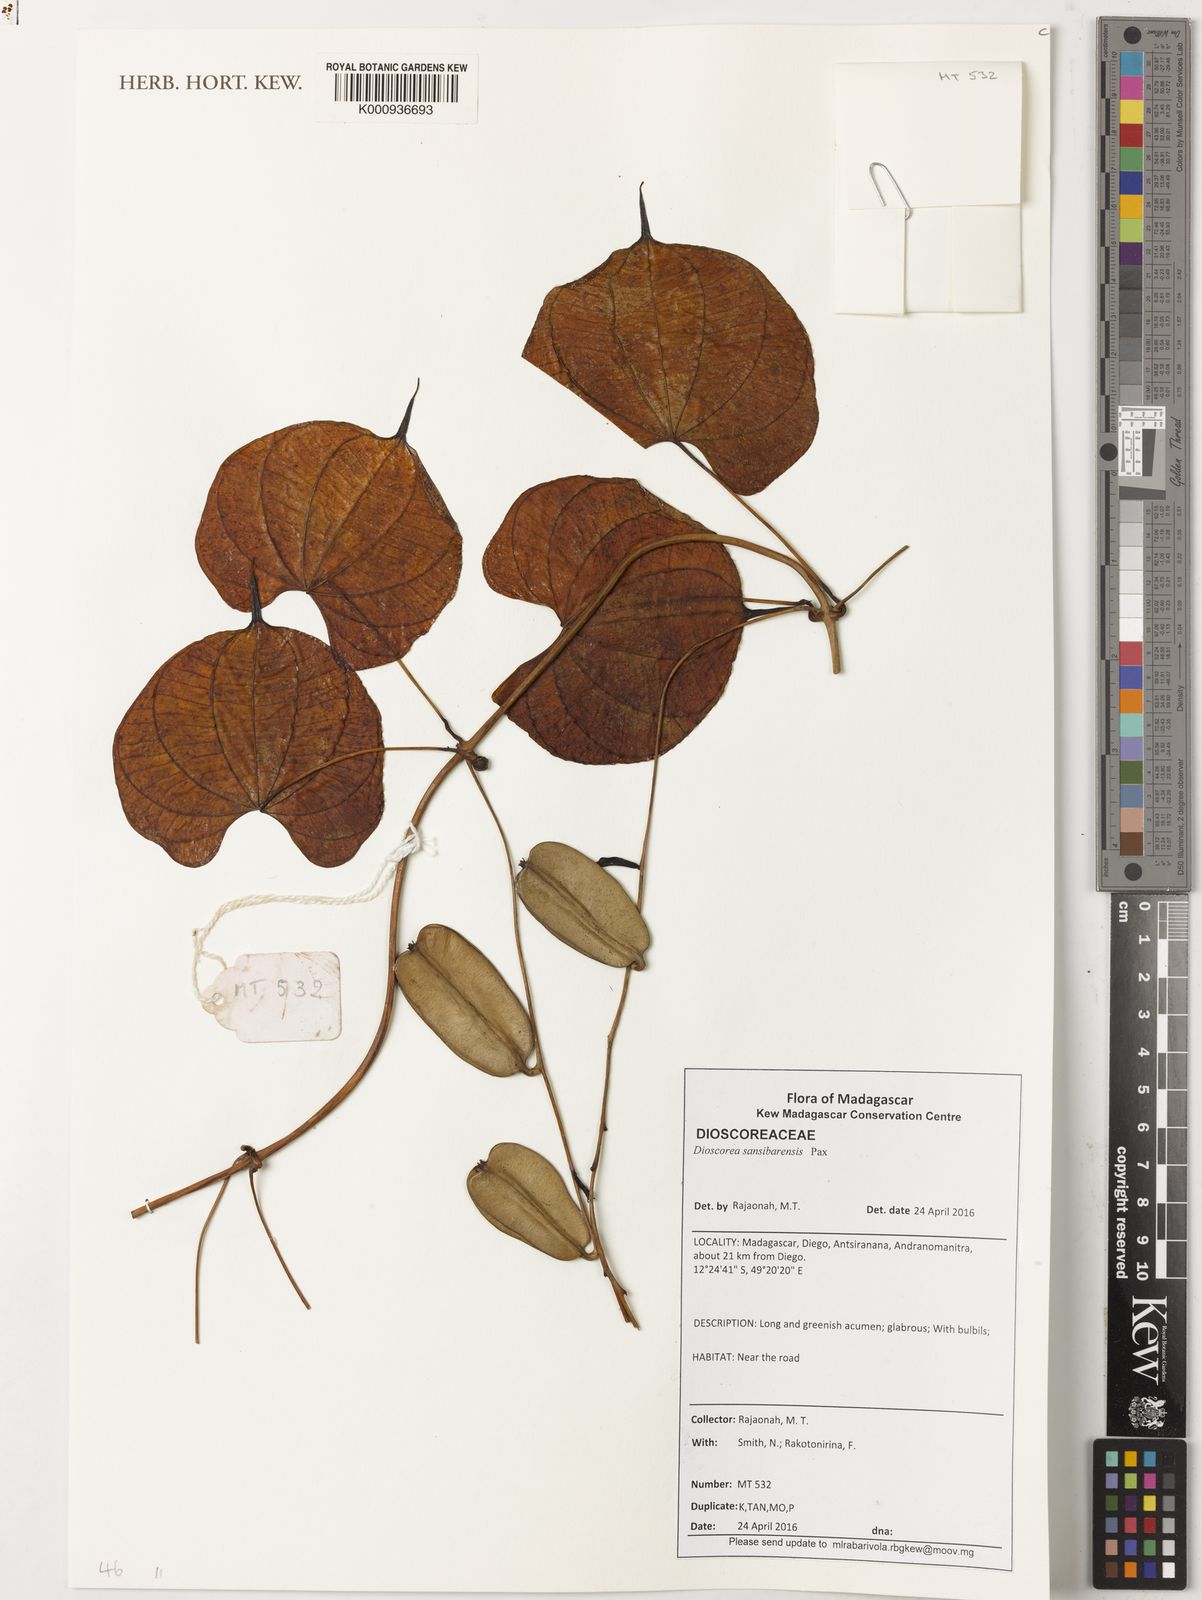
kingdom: Plantae
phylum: Tracheophyta
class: Liliopsida
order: Dioscoreales
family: Dioscoreaceae
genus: Dioscorea
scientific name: Dioscorea sansibarensis
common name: Zanzibar yam
